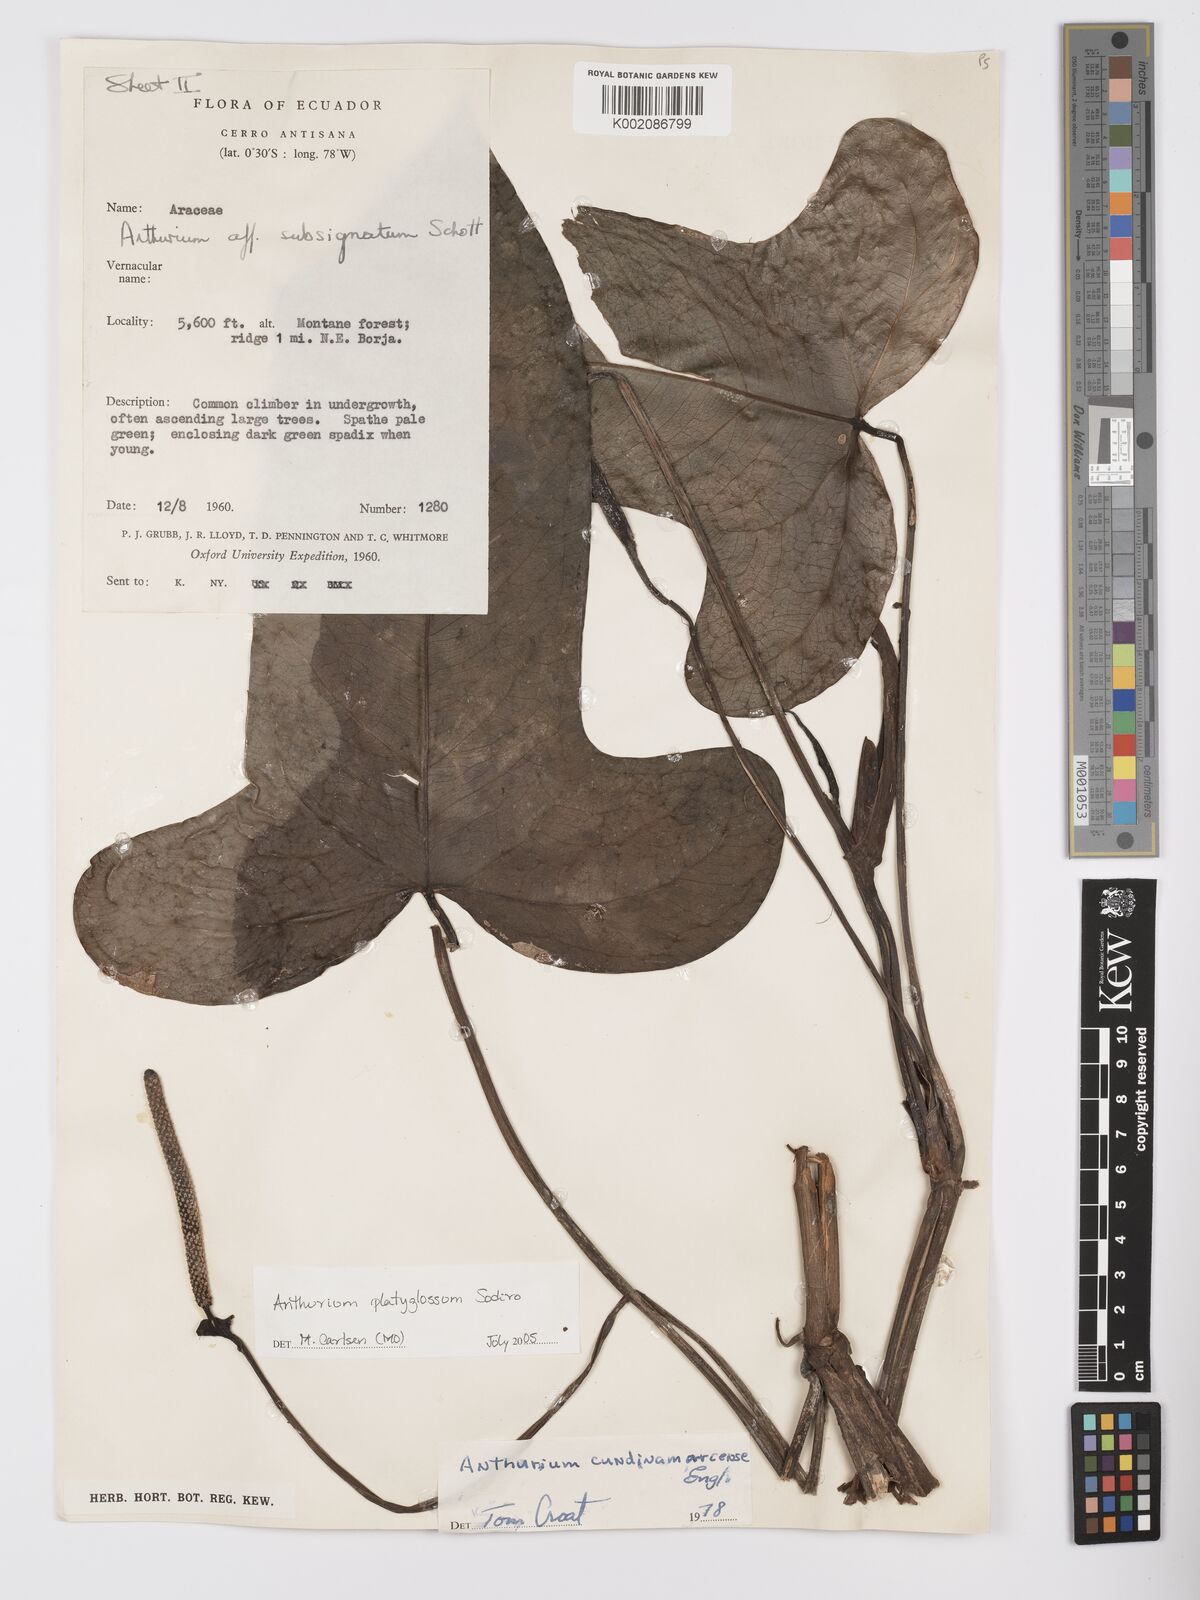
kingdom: Plantae
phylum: Tracheophyta
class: Liliopsida
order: Alismatales
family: Araceae
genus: Anthurium
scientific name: Anthurium platyglossum
